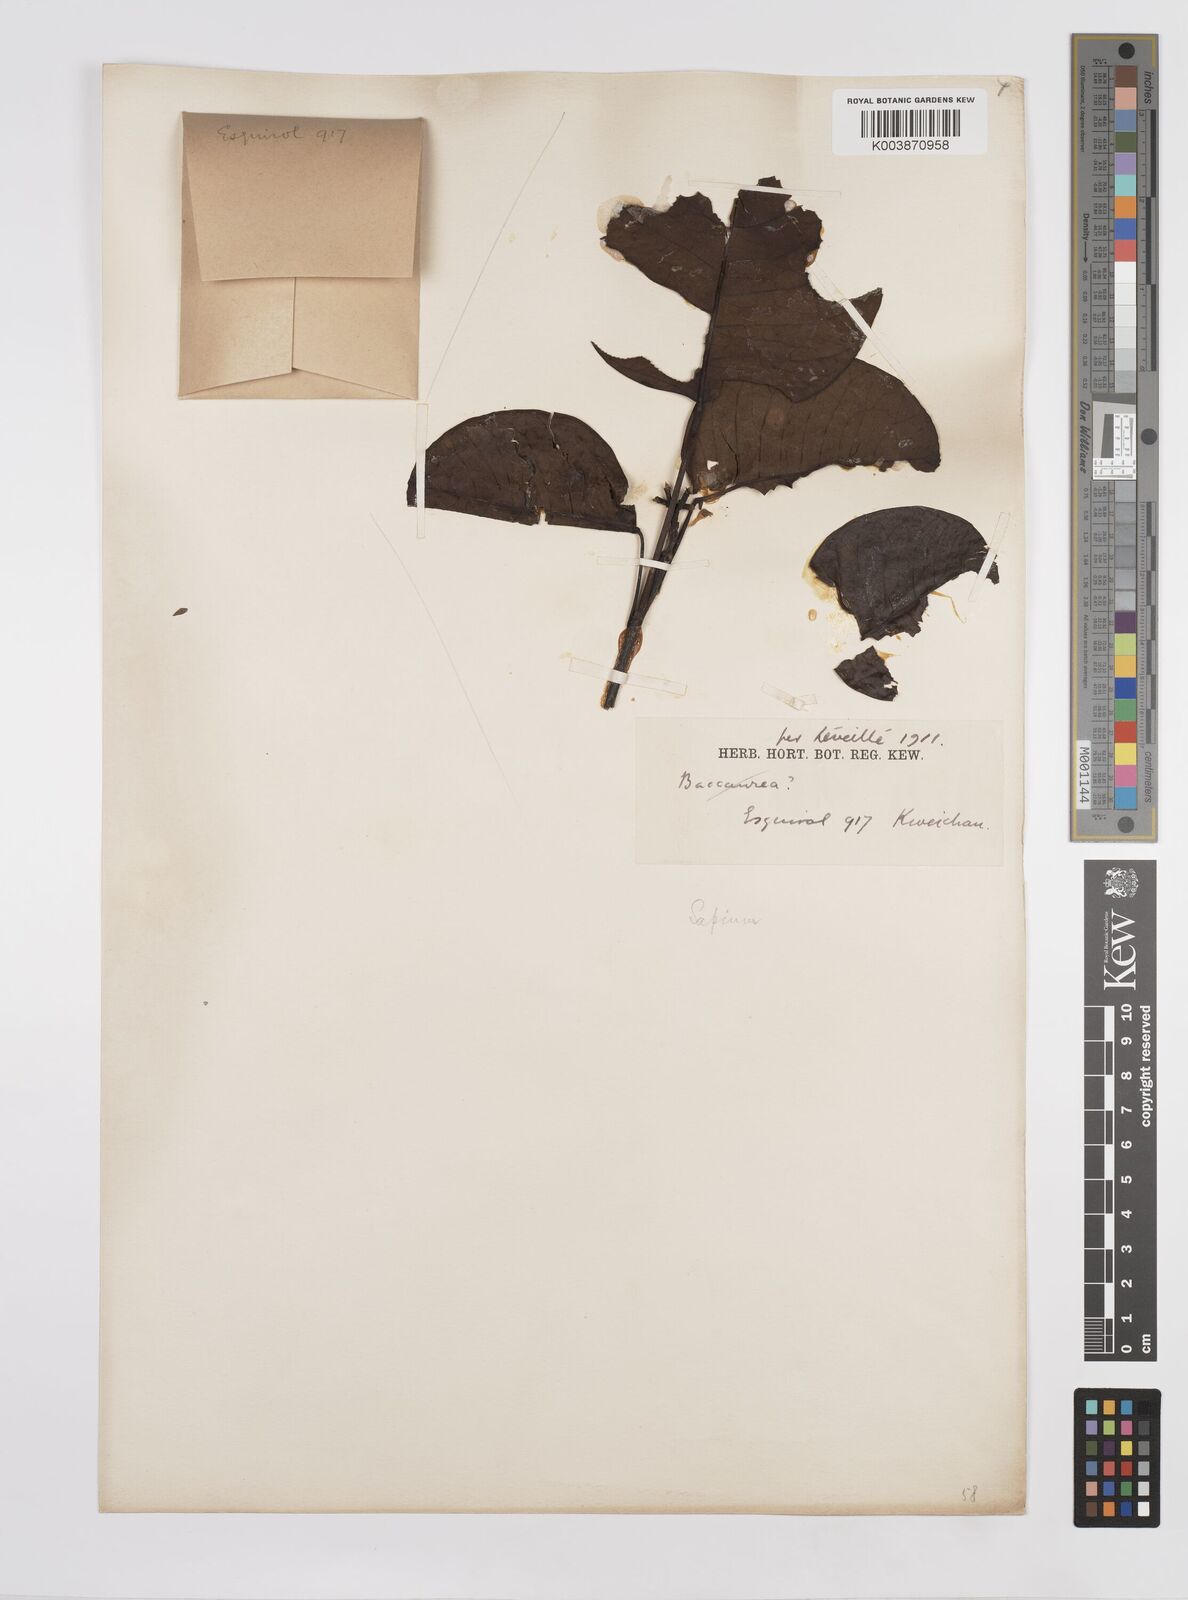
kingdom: Plantae
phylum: Tracheophyta
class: Magnoliopsida
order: Malpighiales
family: Euphorbiaceae
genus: Triadica
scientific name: Triadica rotundifolia
